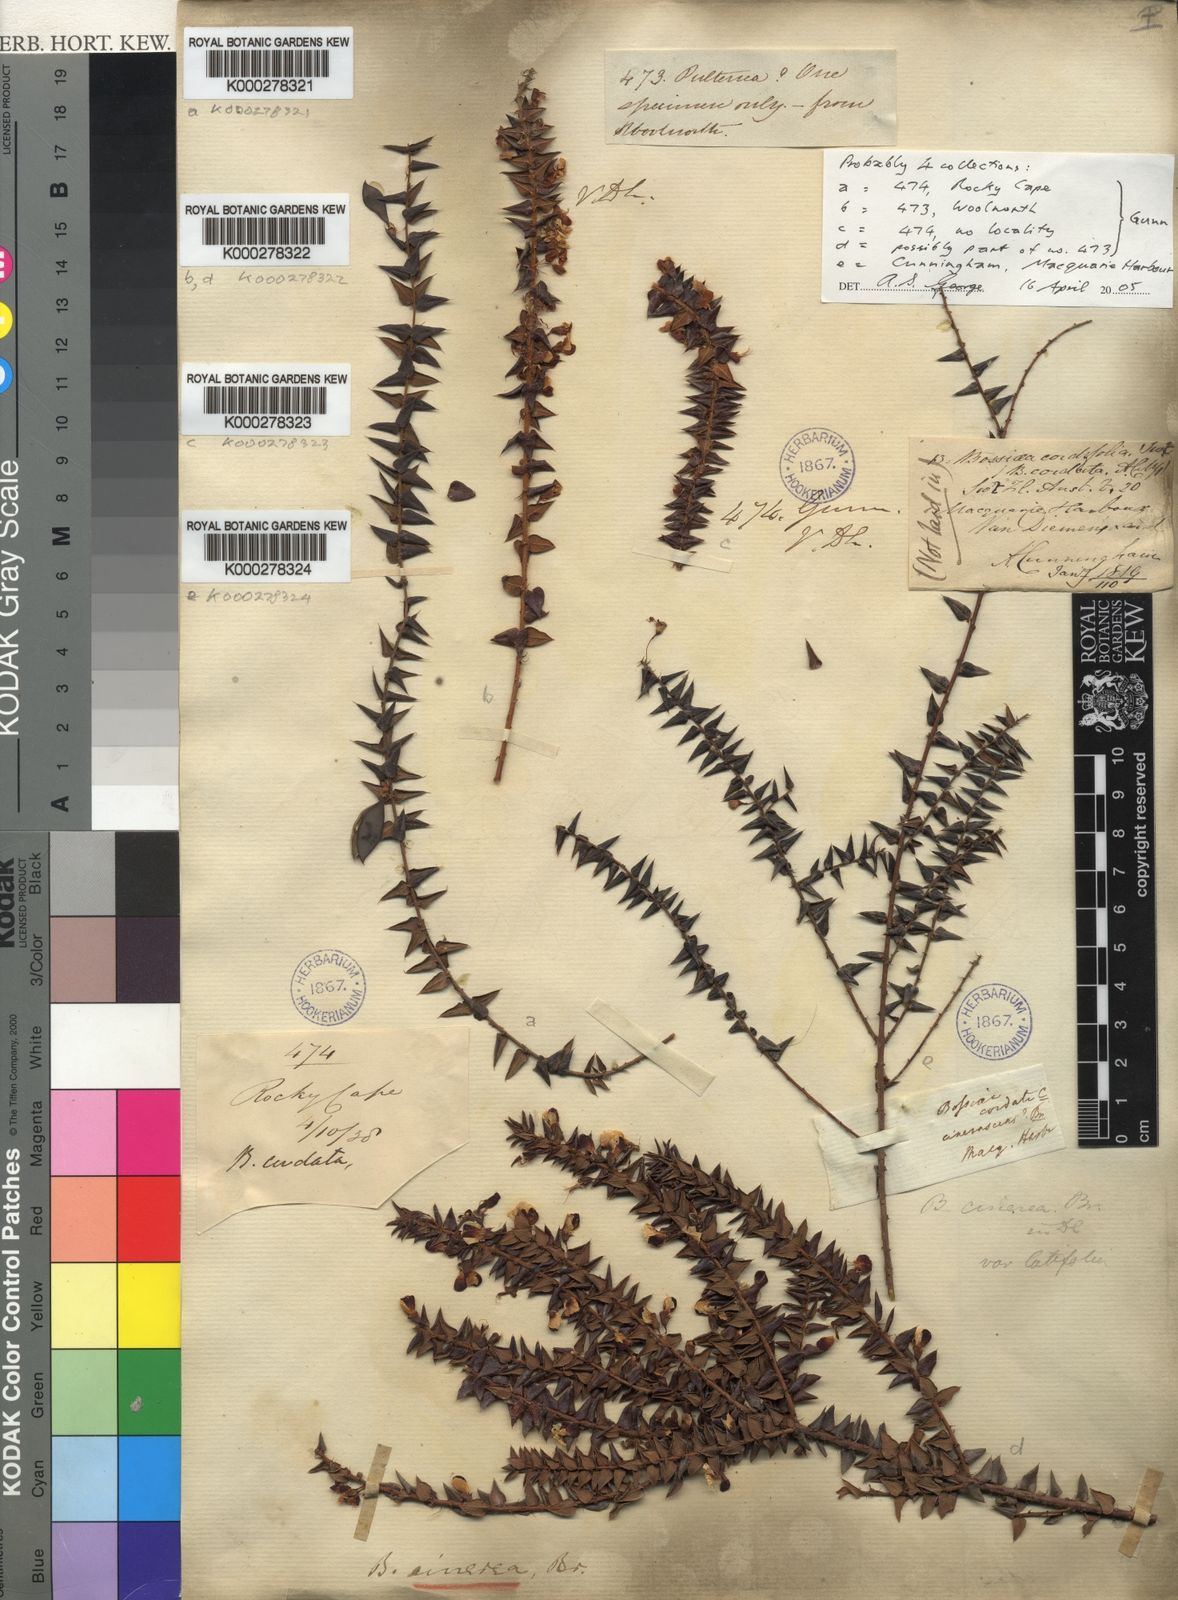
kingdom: Plantae
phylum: Tracheophyta
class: Magnoliopsida
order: Fabales
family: Fabaceae
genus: Bossiaea
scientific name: Bossiaea cinerea
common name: Showy bossiaea
